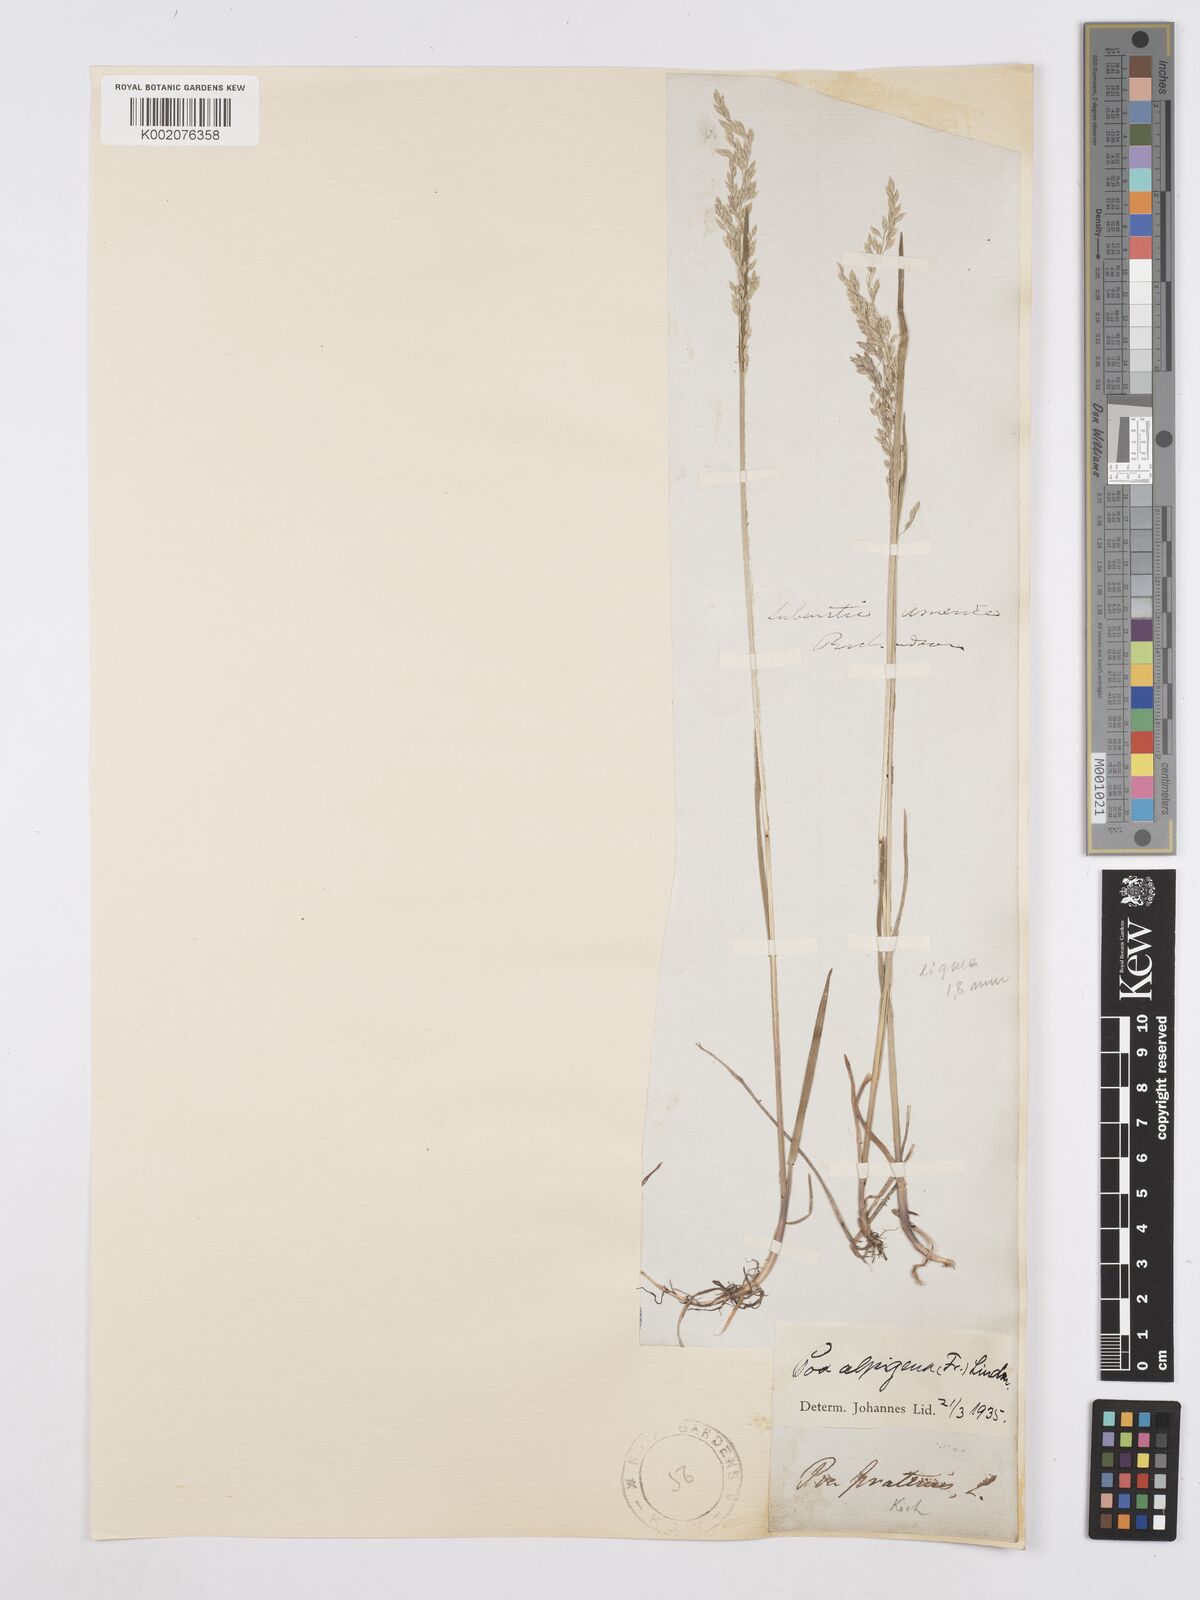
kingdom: Plantae
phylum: Tracheophyta
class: Liliopsida
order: Poales
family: Poaceae
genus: Poa
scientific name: Poa
